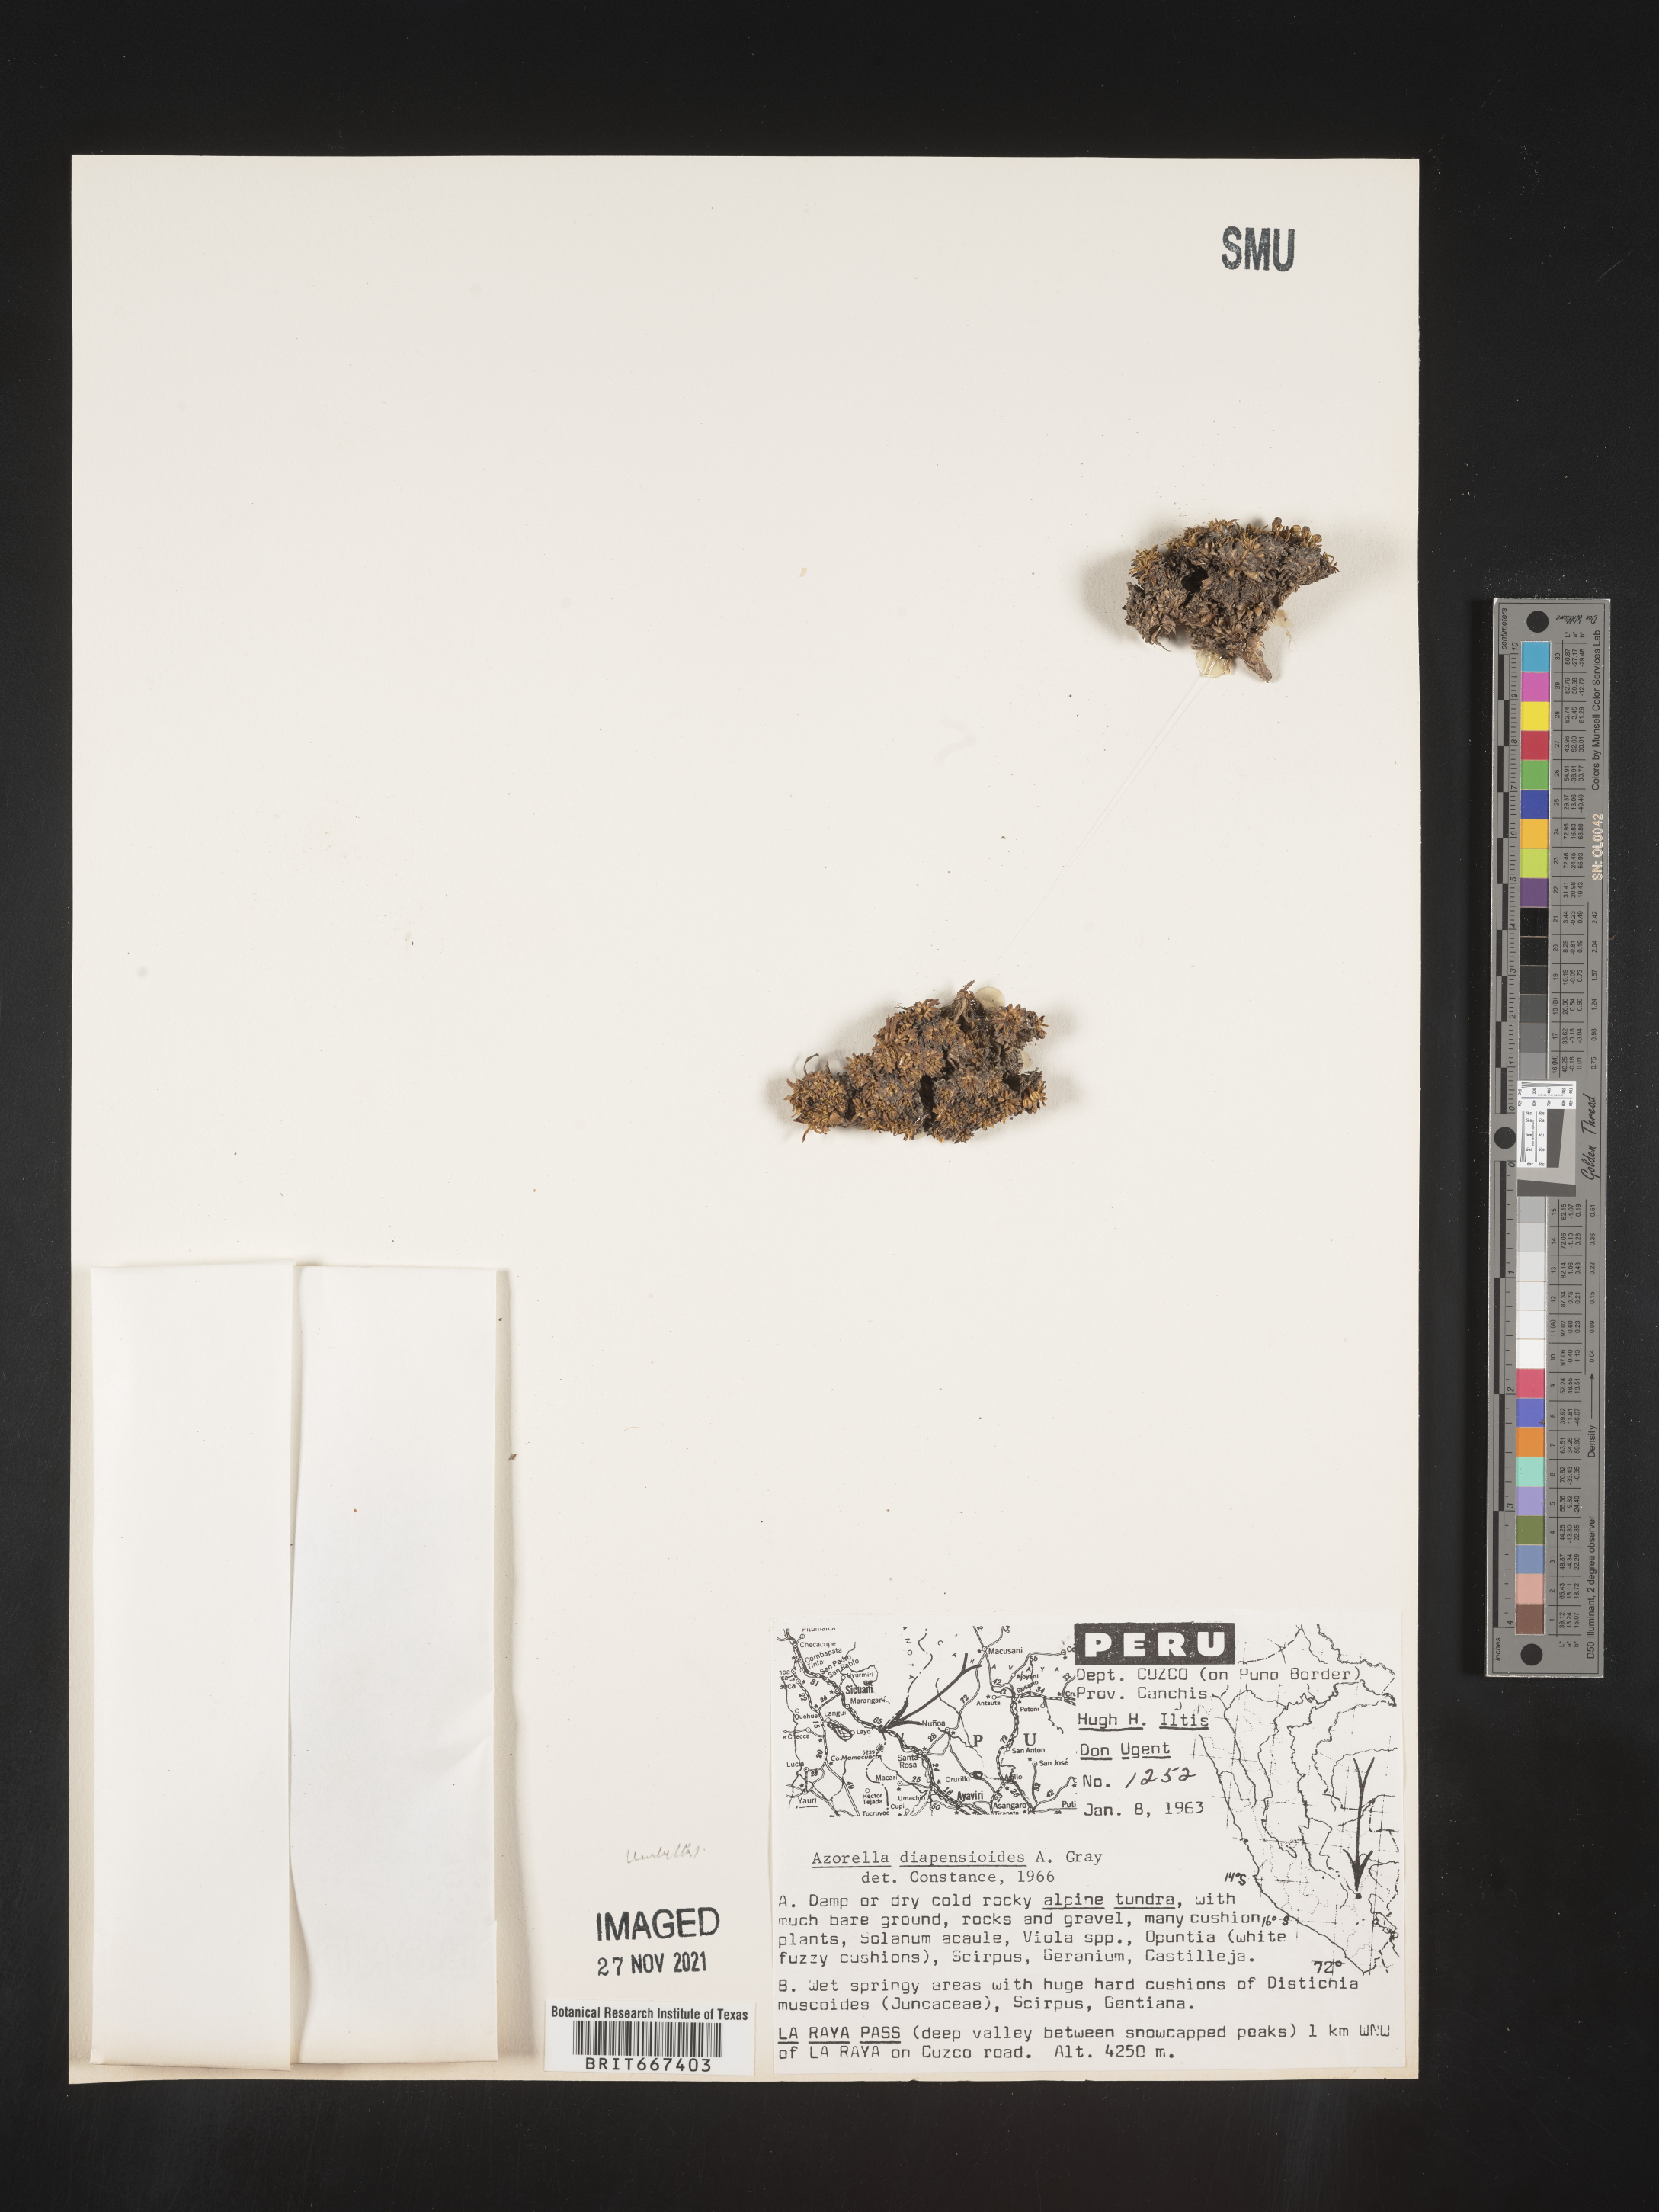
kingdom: Plantae
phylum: Tracheophyta
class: Magnoliopsida
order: Apiales
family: Apiaceae
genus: Azorella
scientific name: Azorella
